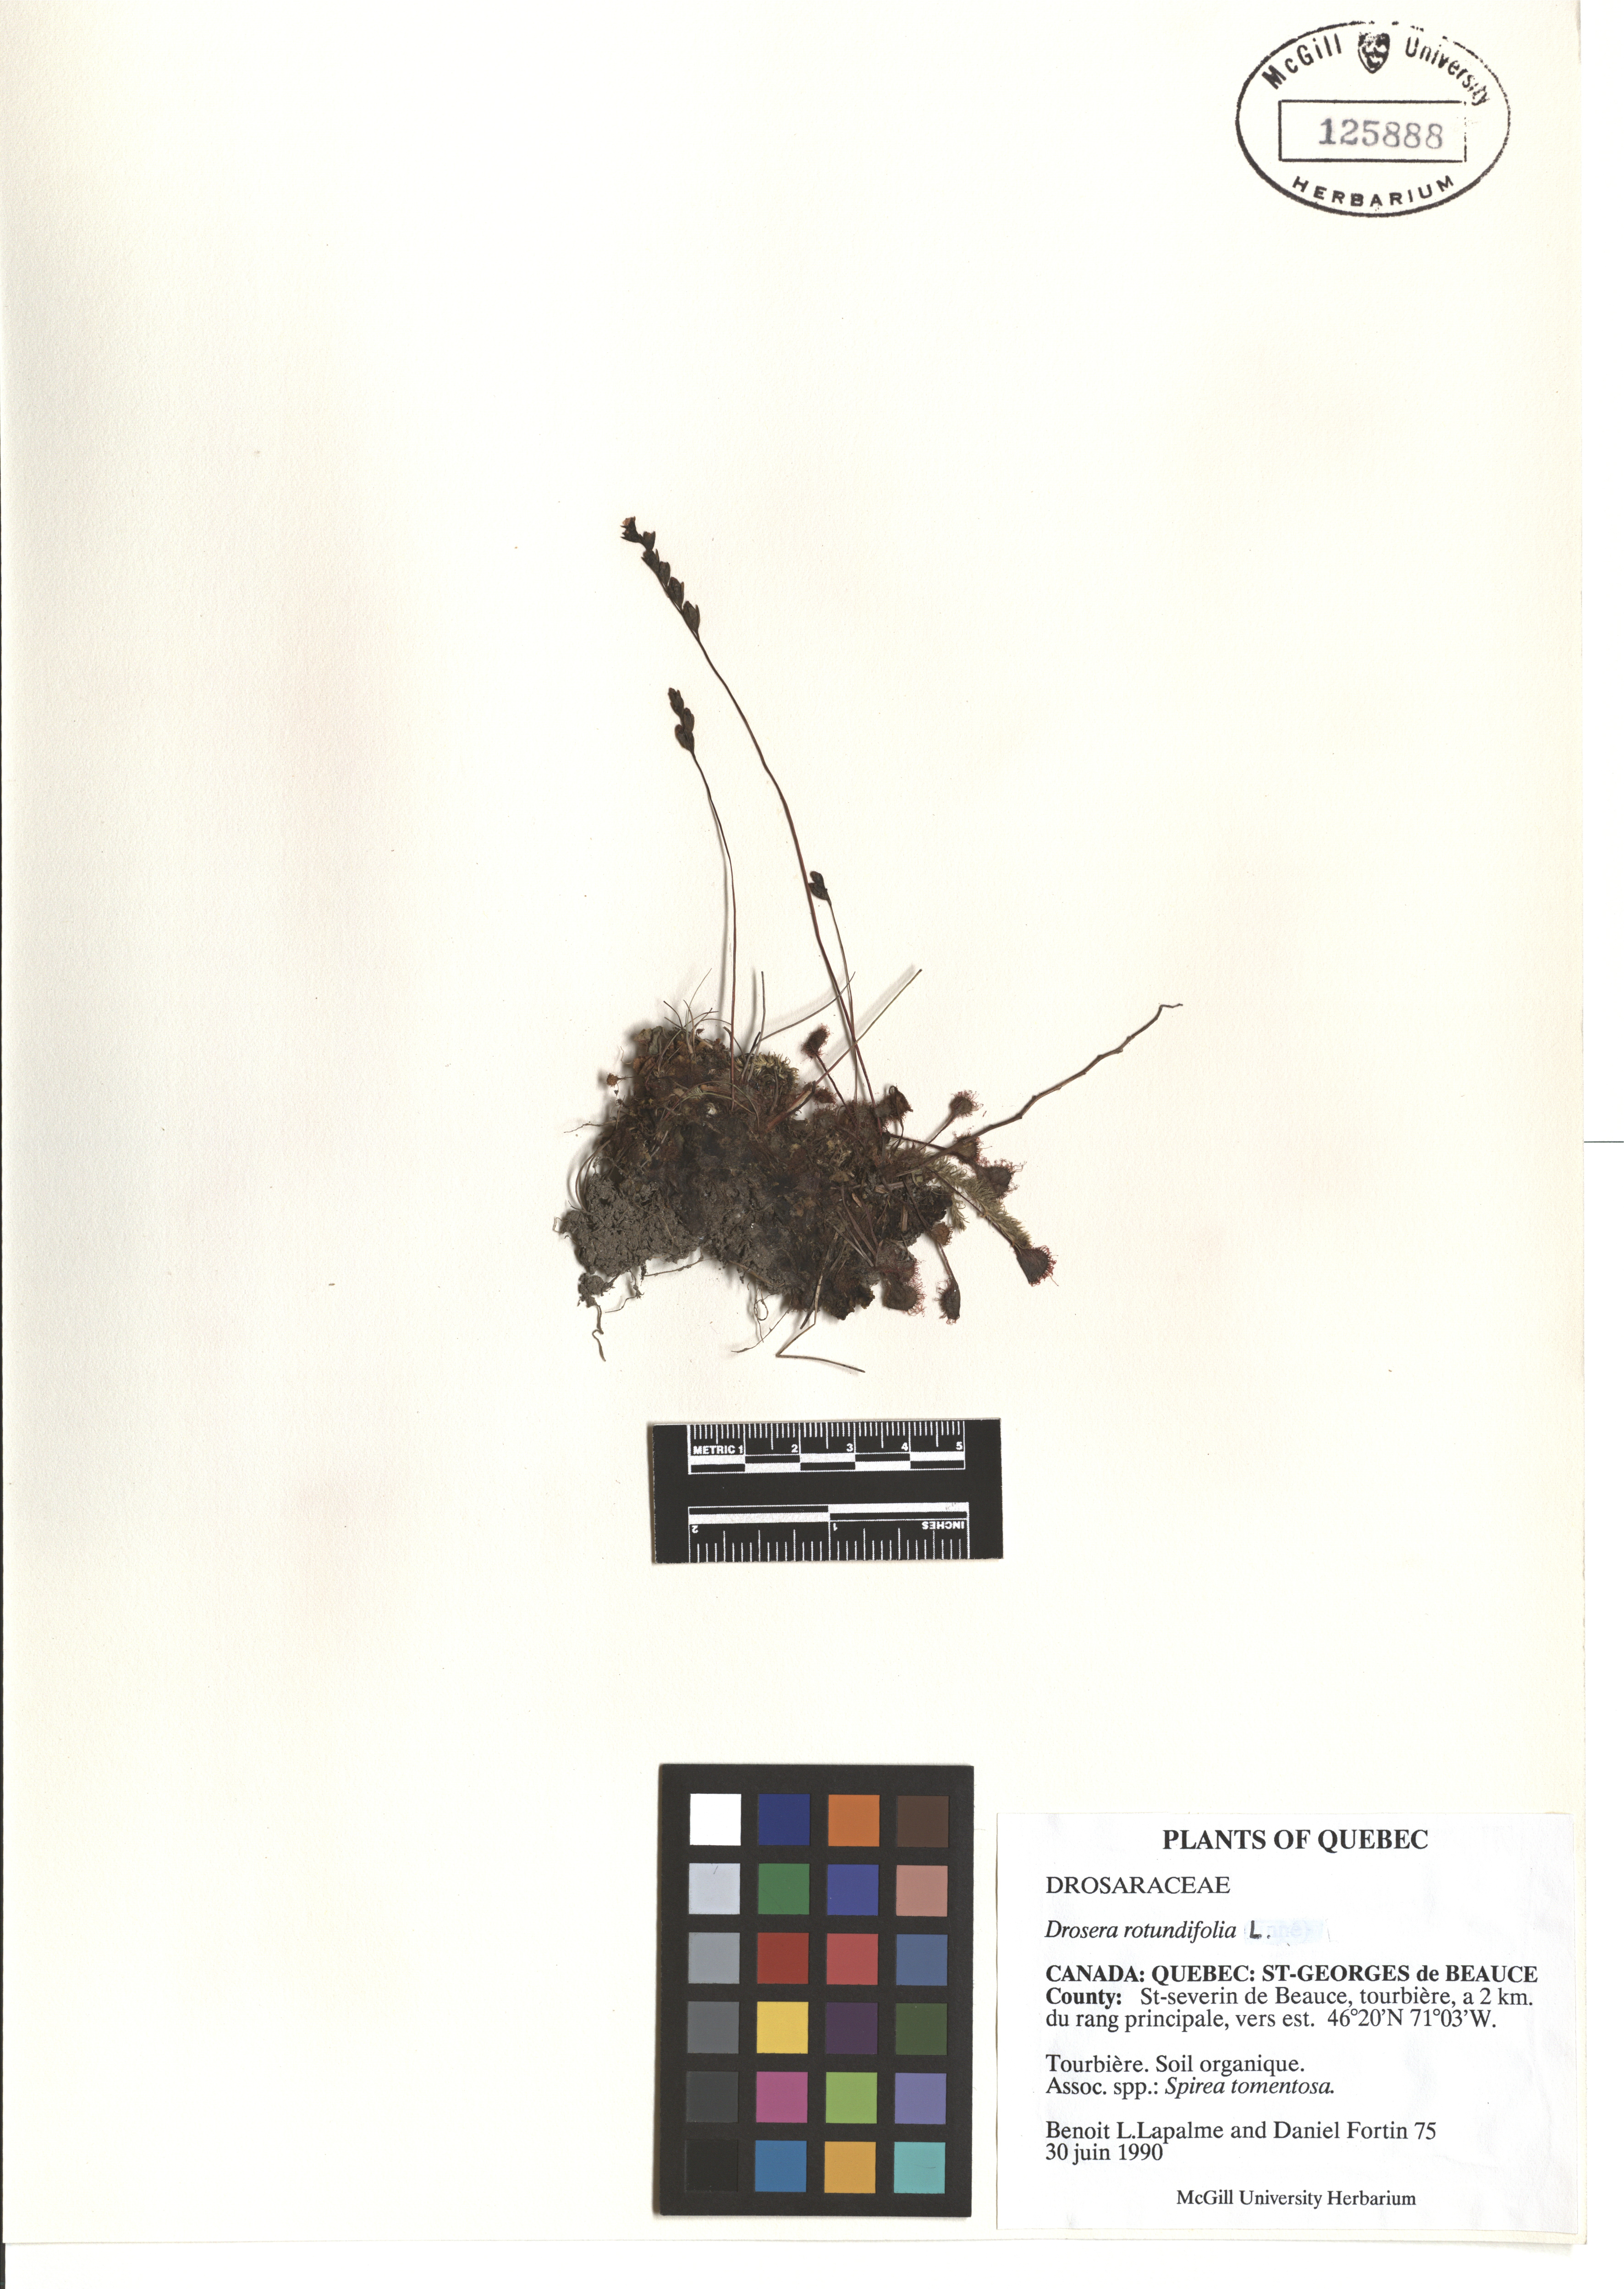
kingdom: Plantae
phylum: Tracheophyta
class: Magnoliopsida
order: Caryophyllales
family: Droseraceae
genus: Drosera
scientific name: Drosera rotundifolia
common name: Round-leaved sundew
